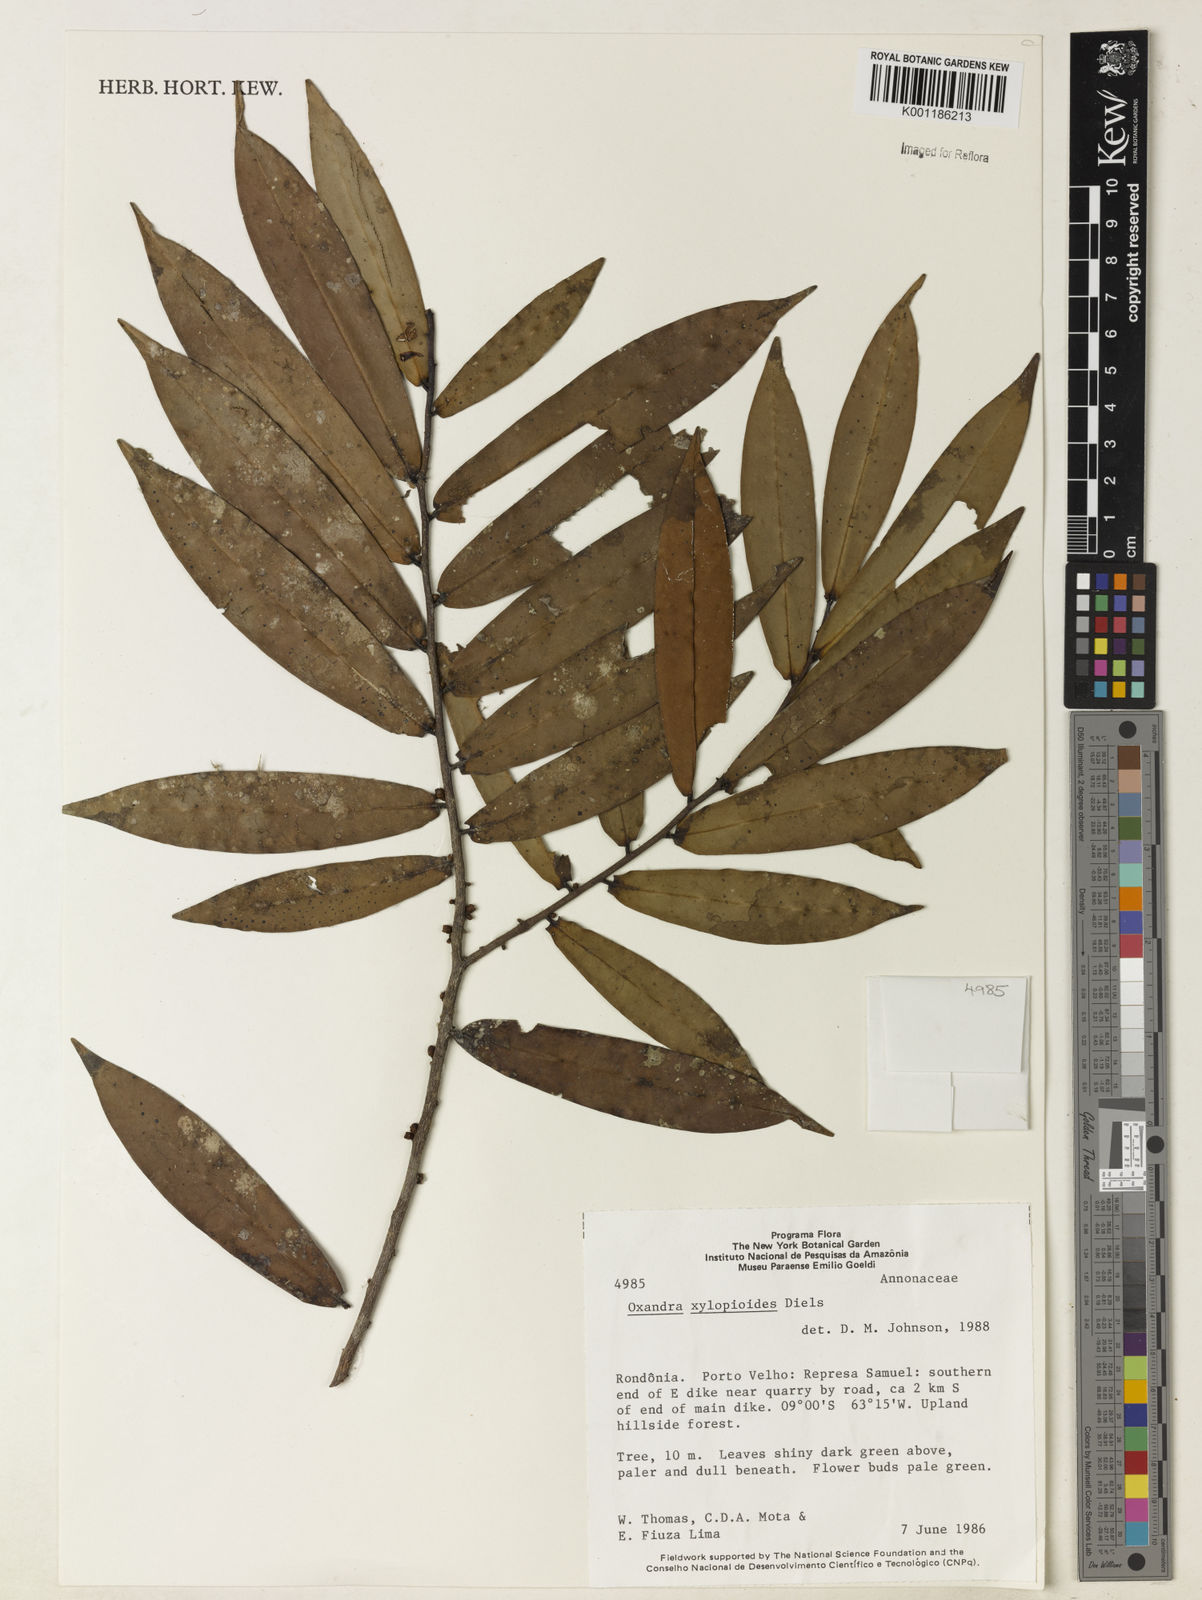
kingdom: Plantae
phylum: Tracheophyta
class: Magnoliopsida
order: Magnoliales
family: Annonaceae
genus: Oxandra
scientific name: Oxandra xylopioides
